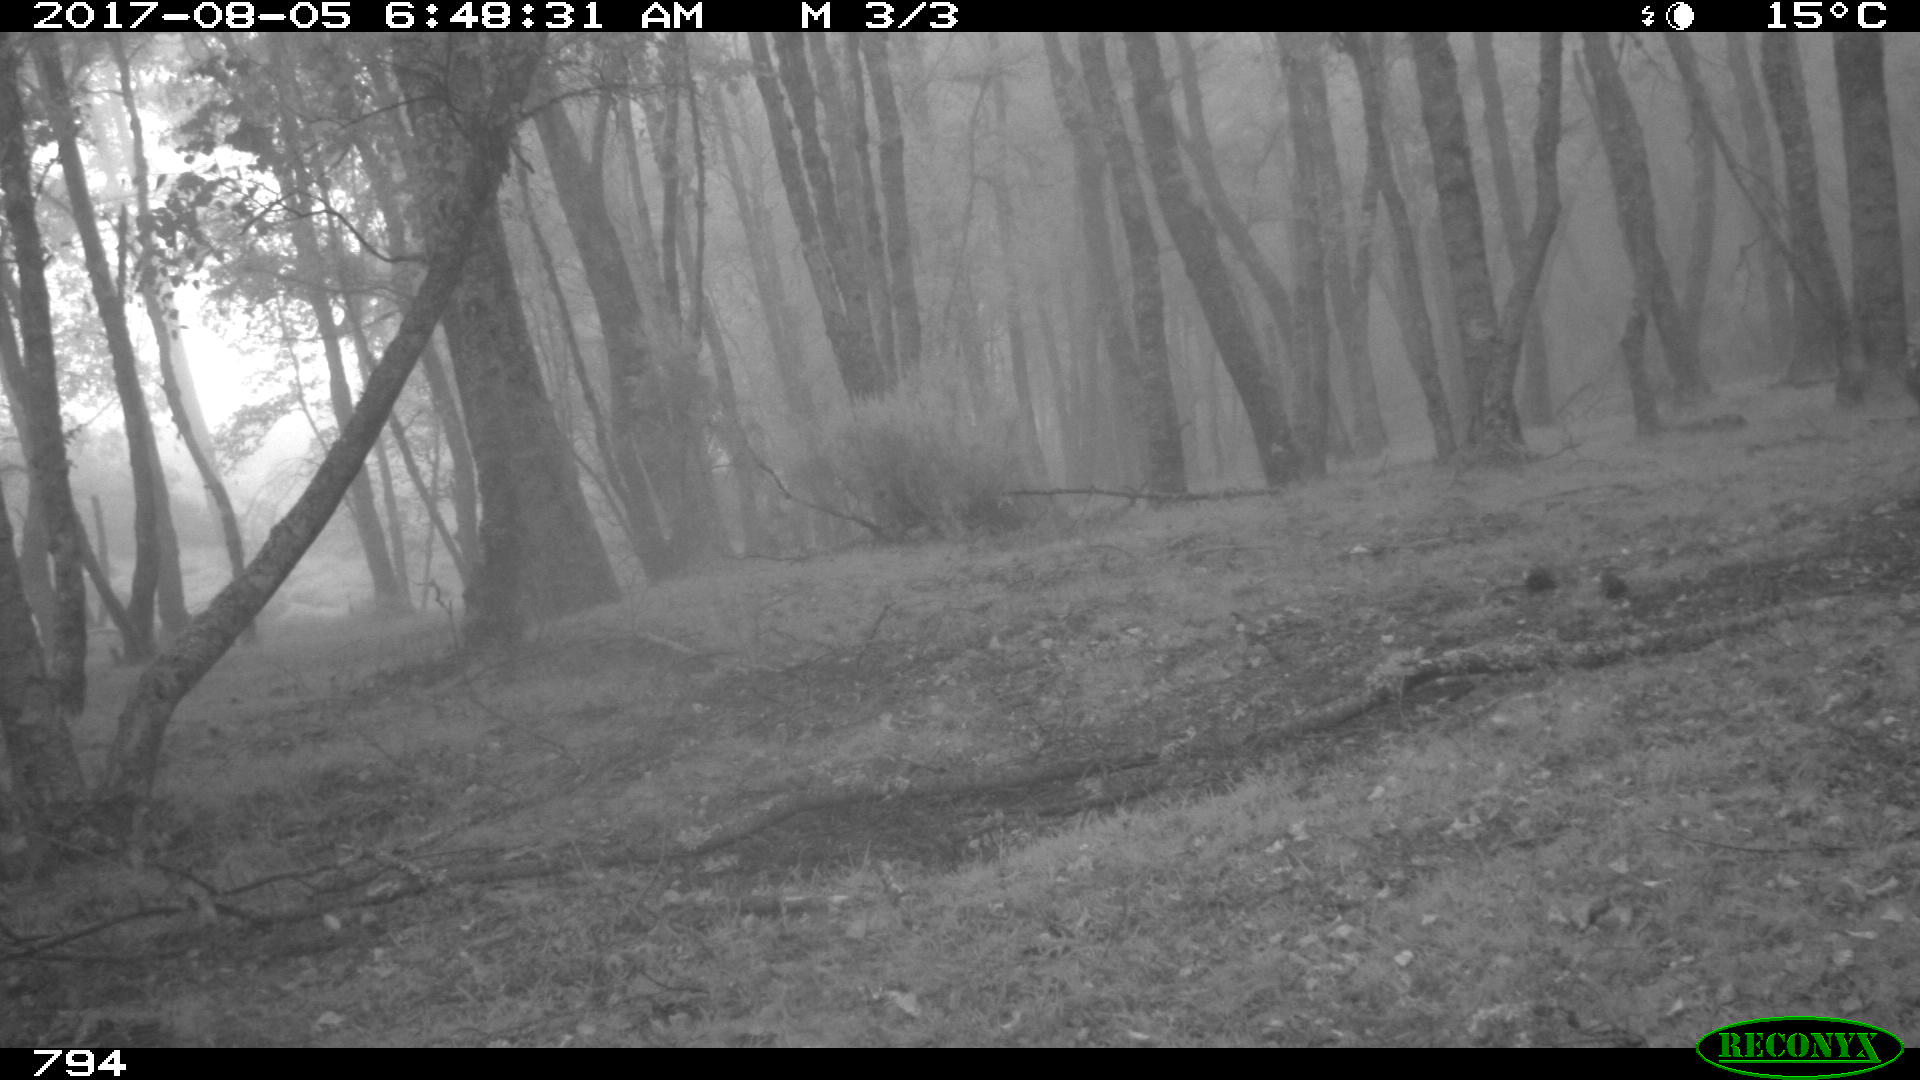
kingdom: Animalia
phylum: Chordata
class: Mammalia
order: Perissodactyla
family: Equidae
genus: Equus
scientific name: Equus caballus
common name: Horse
